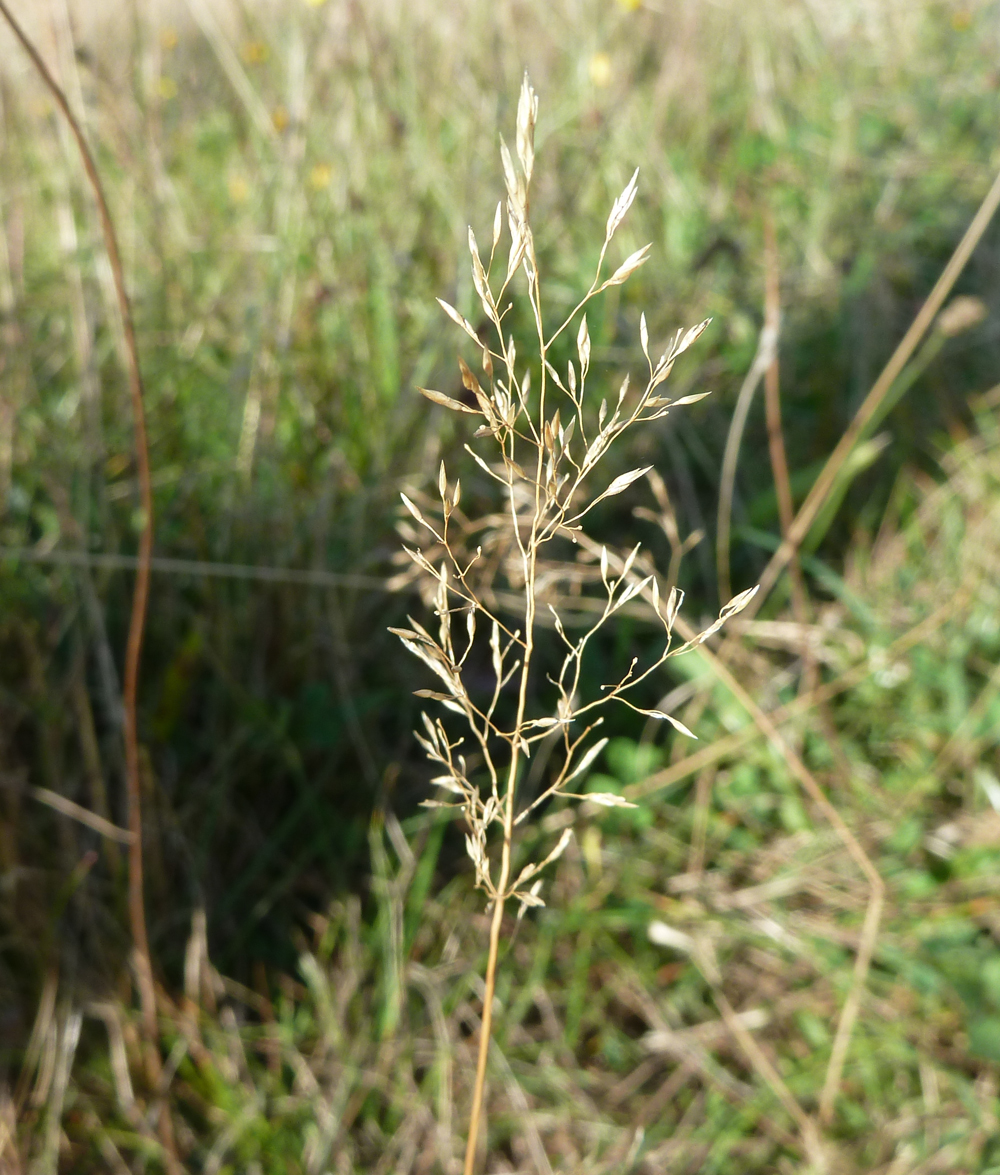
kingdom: Plantae
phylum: Tracheophyta
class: Liliopsida
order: Poales
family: Poaceae
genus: Avenella
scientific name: Avenella flexuosa
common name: Wavy hairgrass
